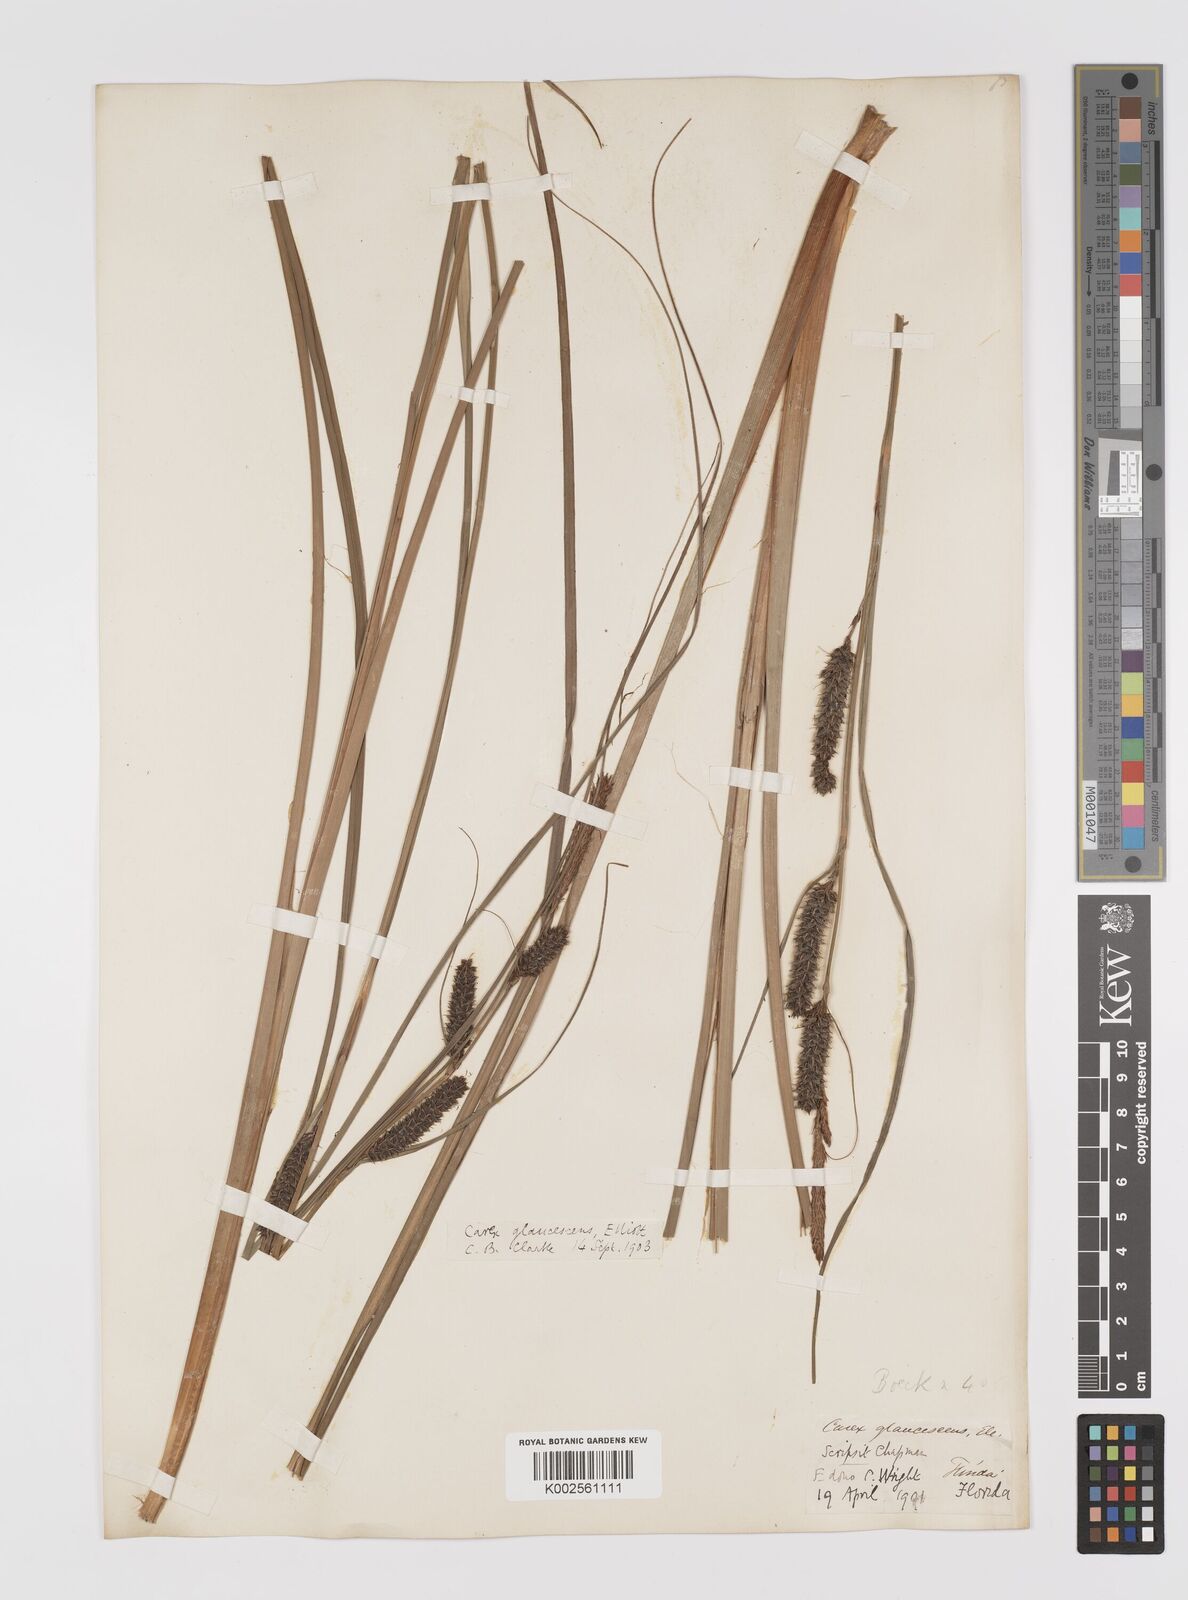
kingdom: Plantae
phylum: Tracheophyta
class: Liliopsida
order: Poales
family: Cyperaceae
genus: Carex
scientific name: Carex glaucescens
